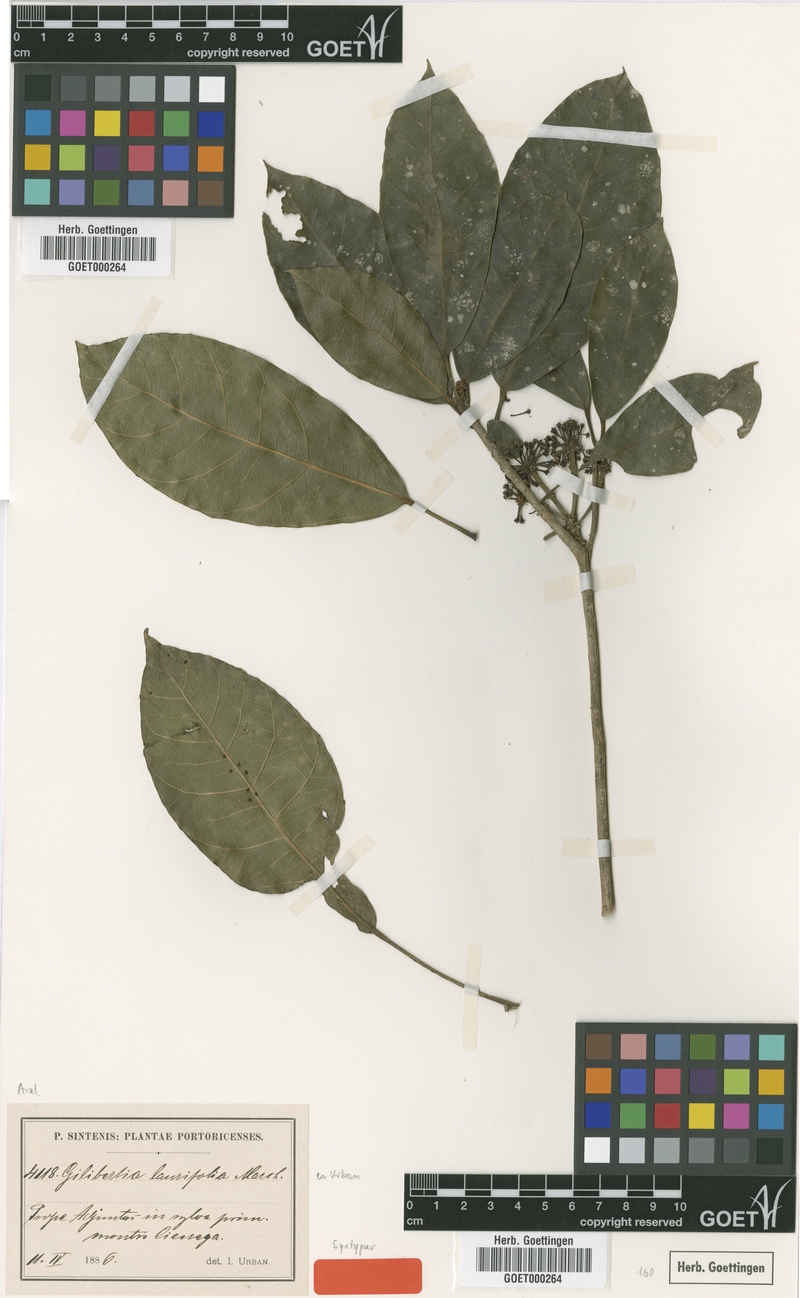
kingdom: Plantae
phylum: Tracheophyta
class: Magnoliopsida
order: Apiales
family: Araliaceae
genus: Dendropanax
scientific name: Dendropanax laurifolius
